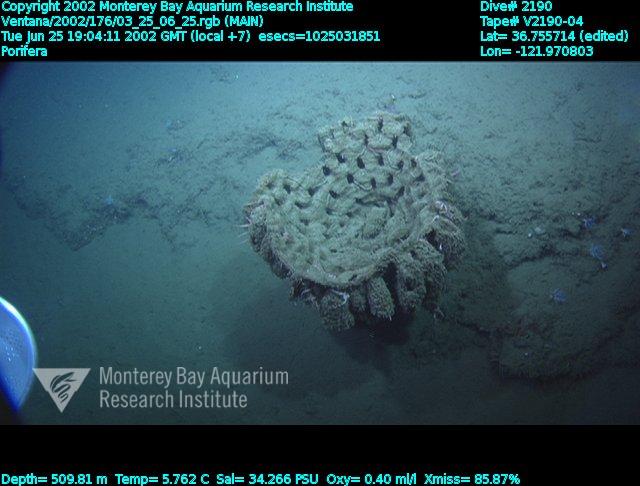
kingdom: Animalia
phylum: Porifera
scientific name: Porifera
